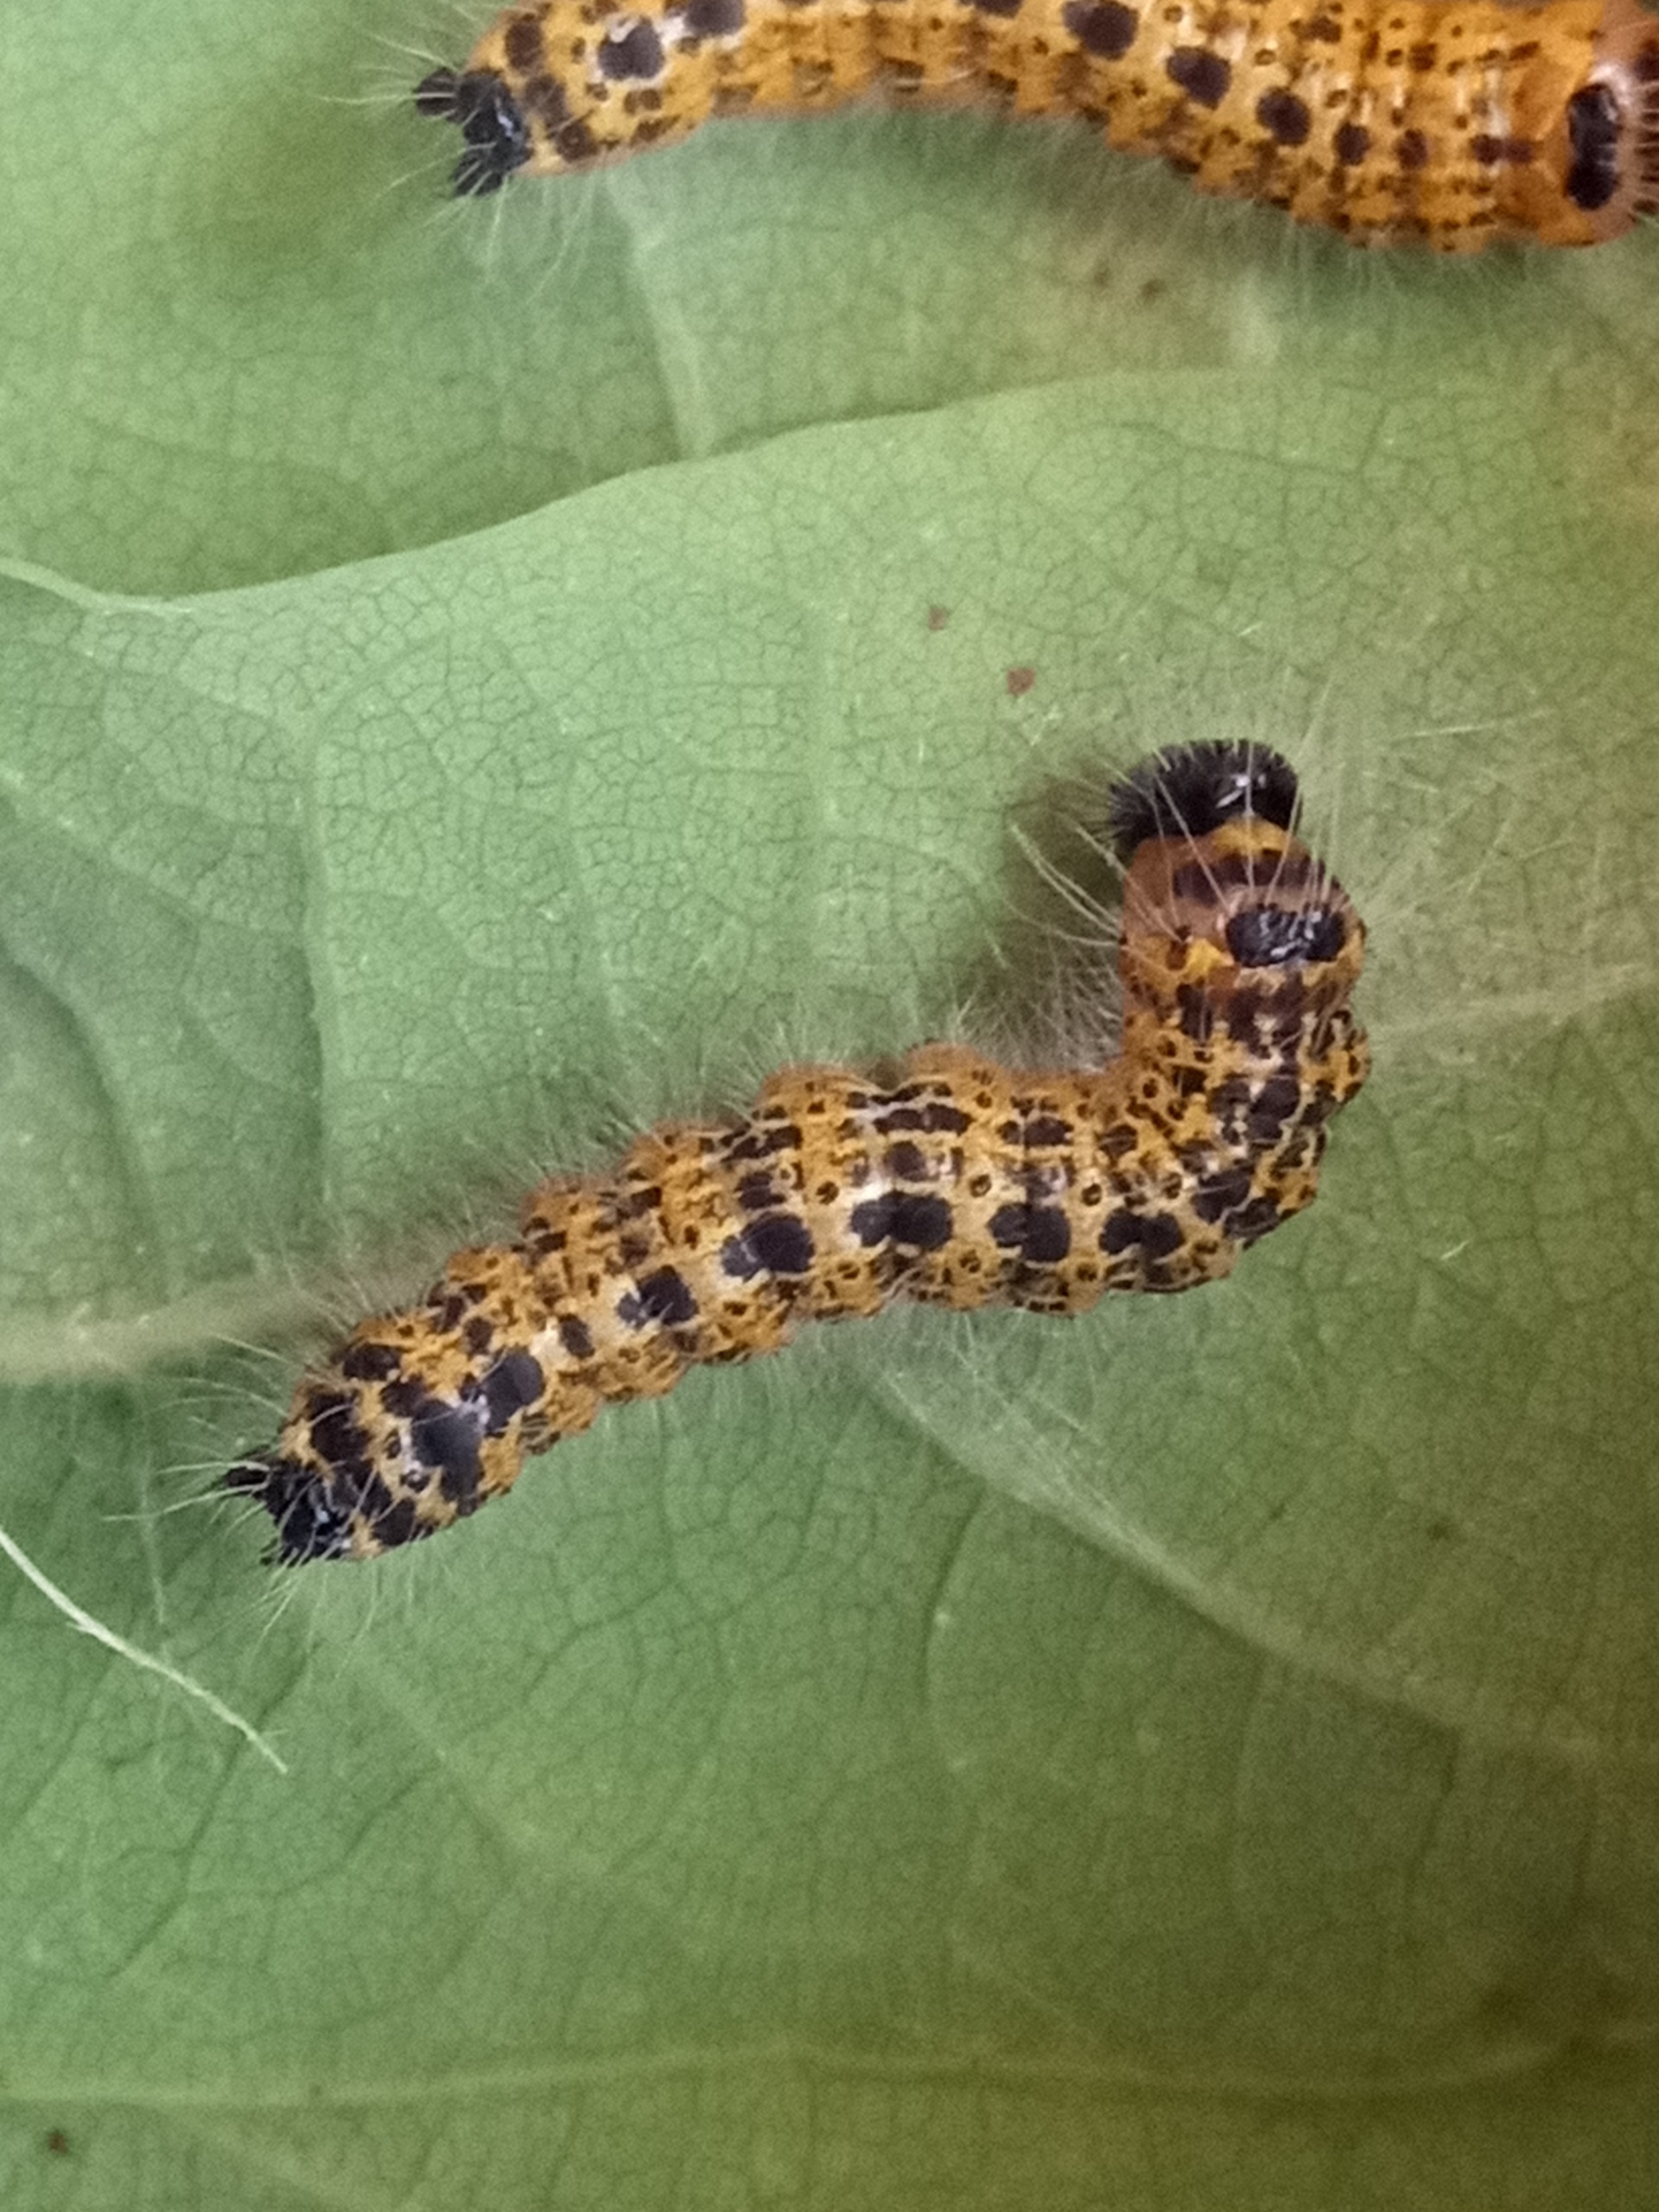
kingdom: Animalia
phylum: Arthropoda
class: Insecta
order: Lepidoptera
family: Notodontidae
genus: Phalera
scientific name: Phalera bucephala
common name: Måneplet
